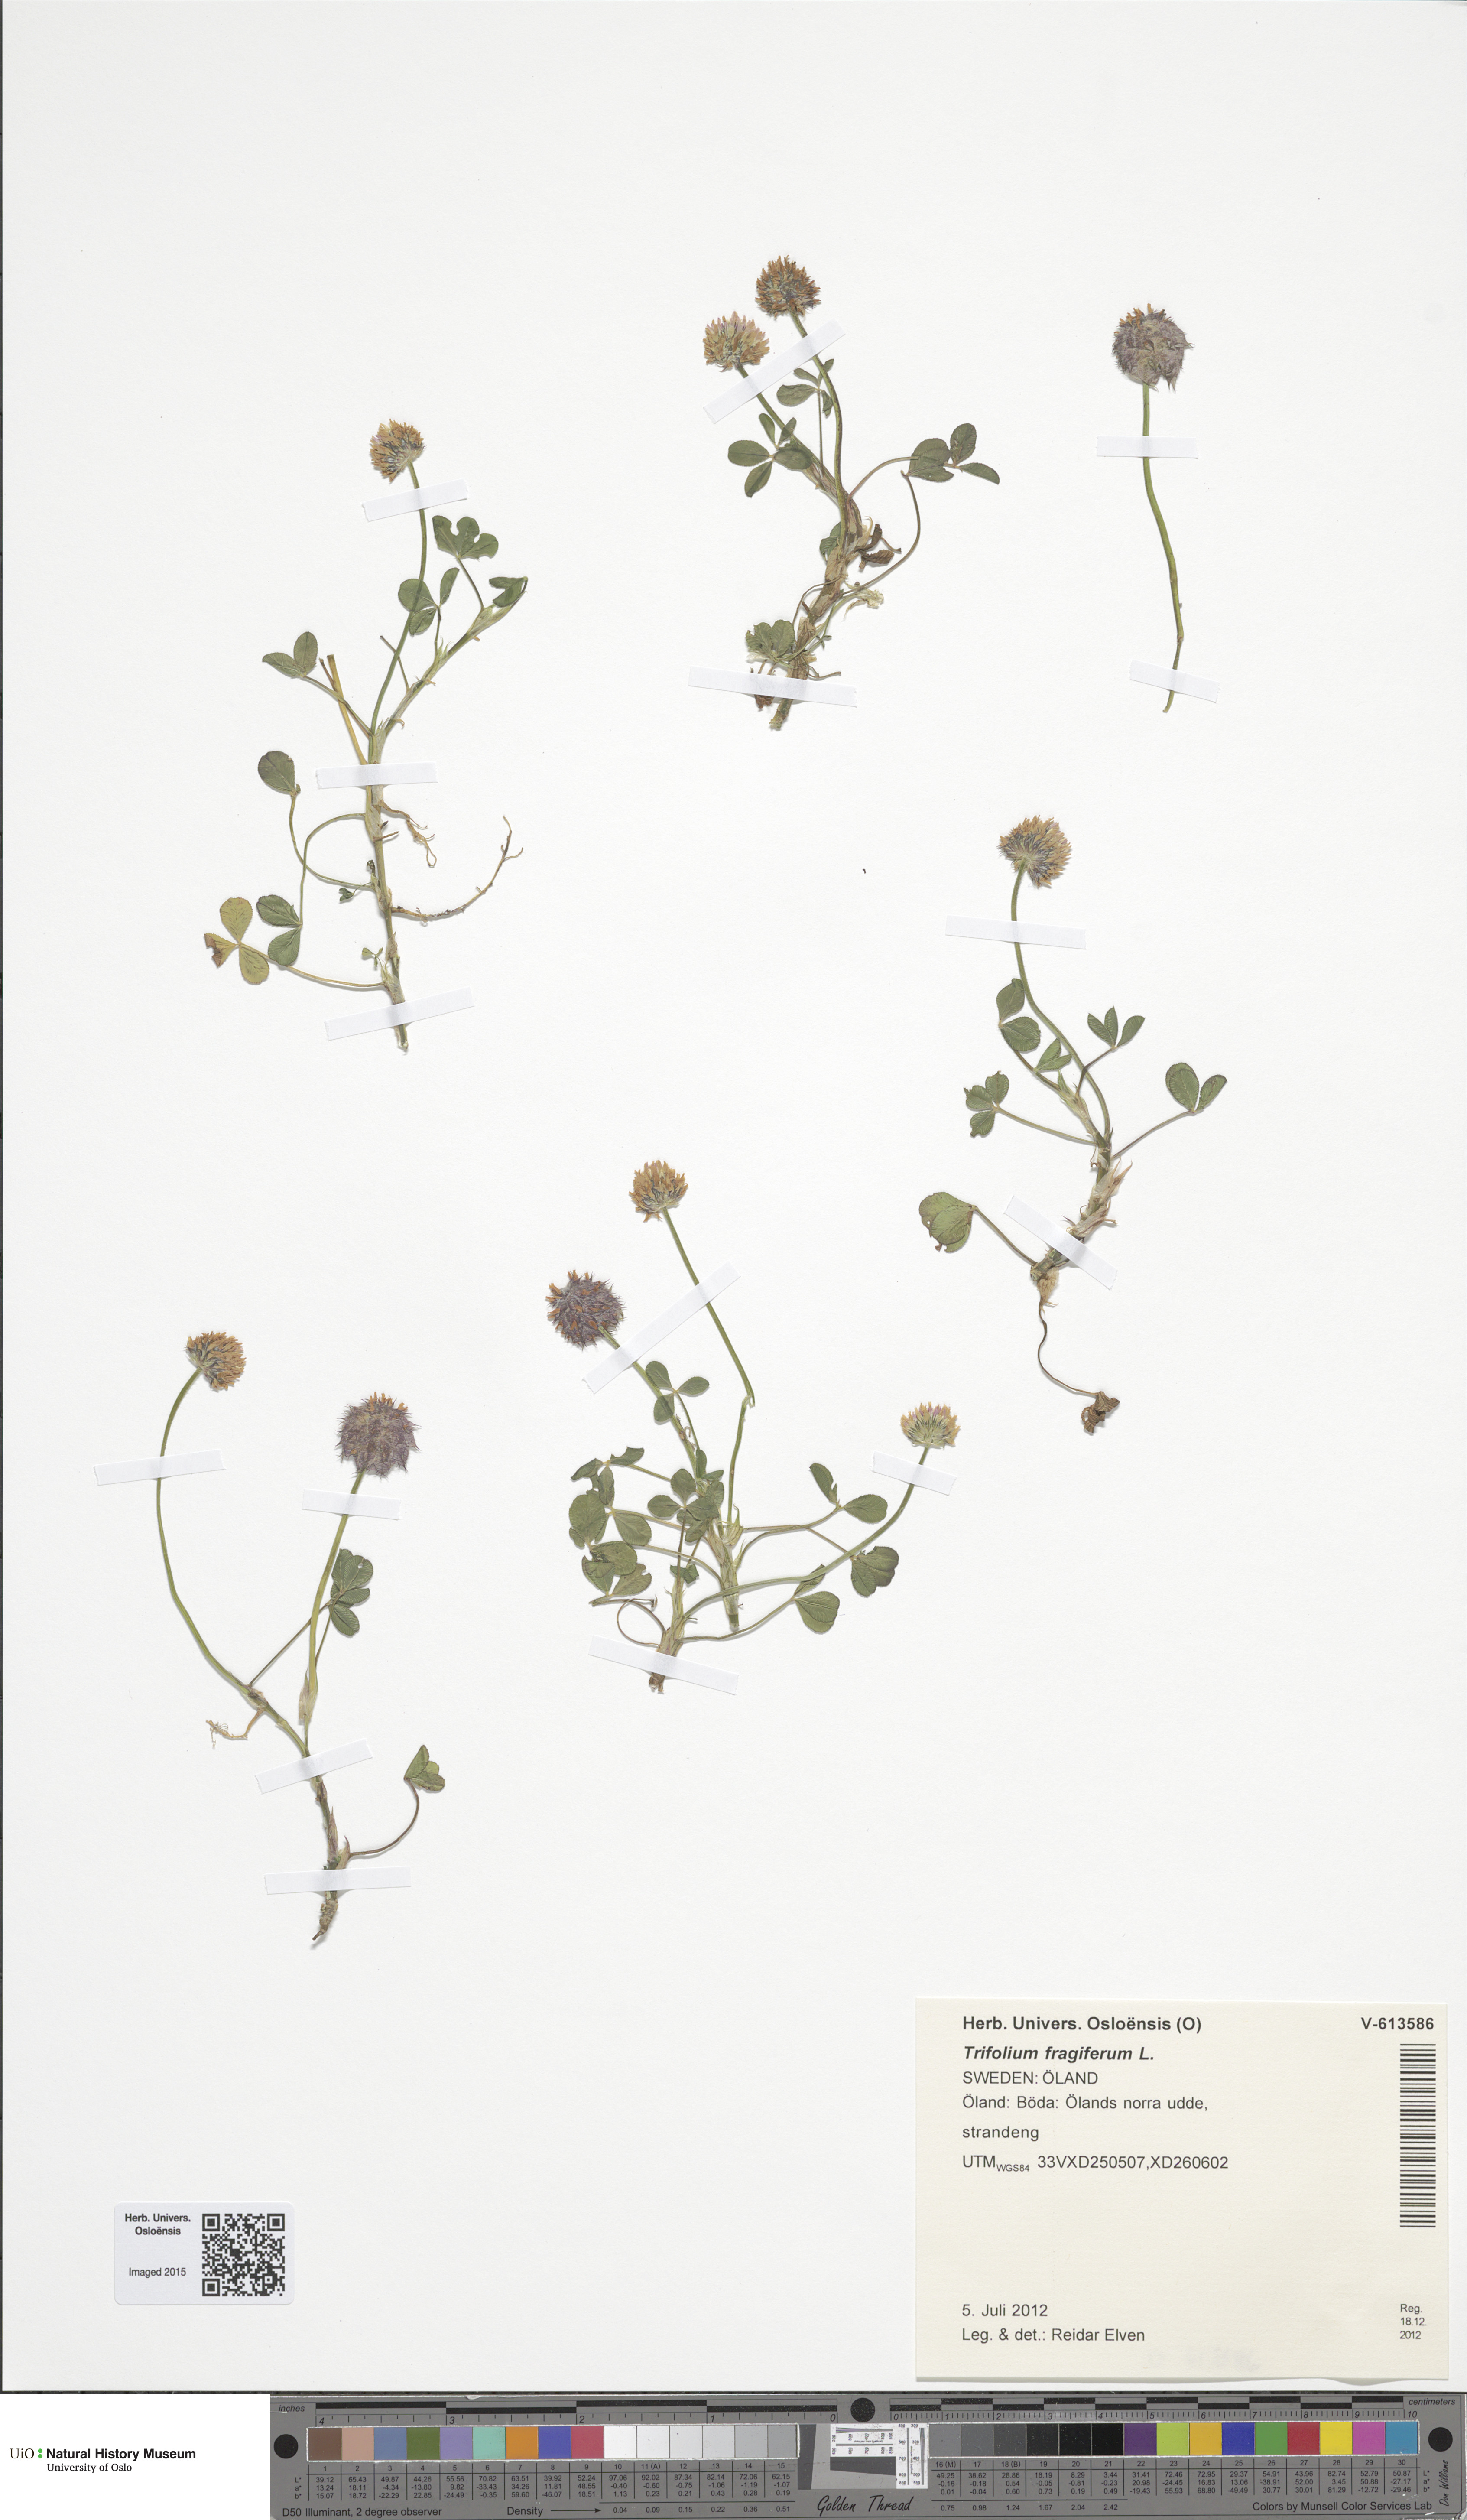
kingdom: Plantae
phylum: Tracheophyta
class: Magnoliopsida
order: Fabales
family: Fabaceae
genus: Trifolium
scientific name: Trifolium fragiferum
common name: Strawberry clover
